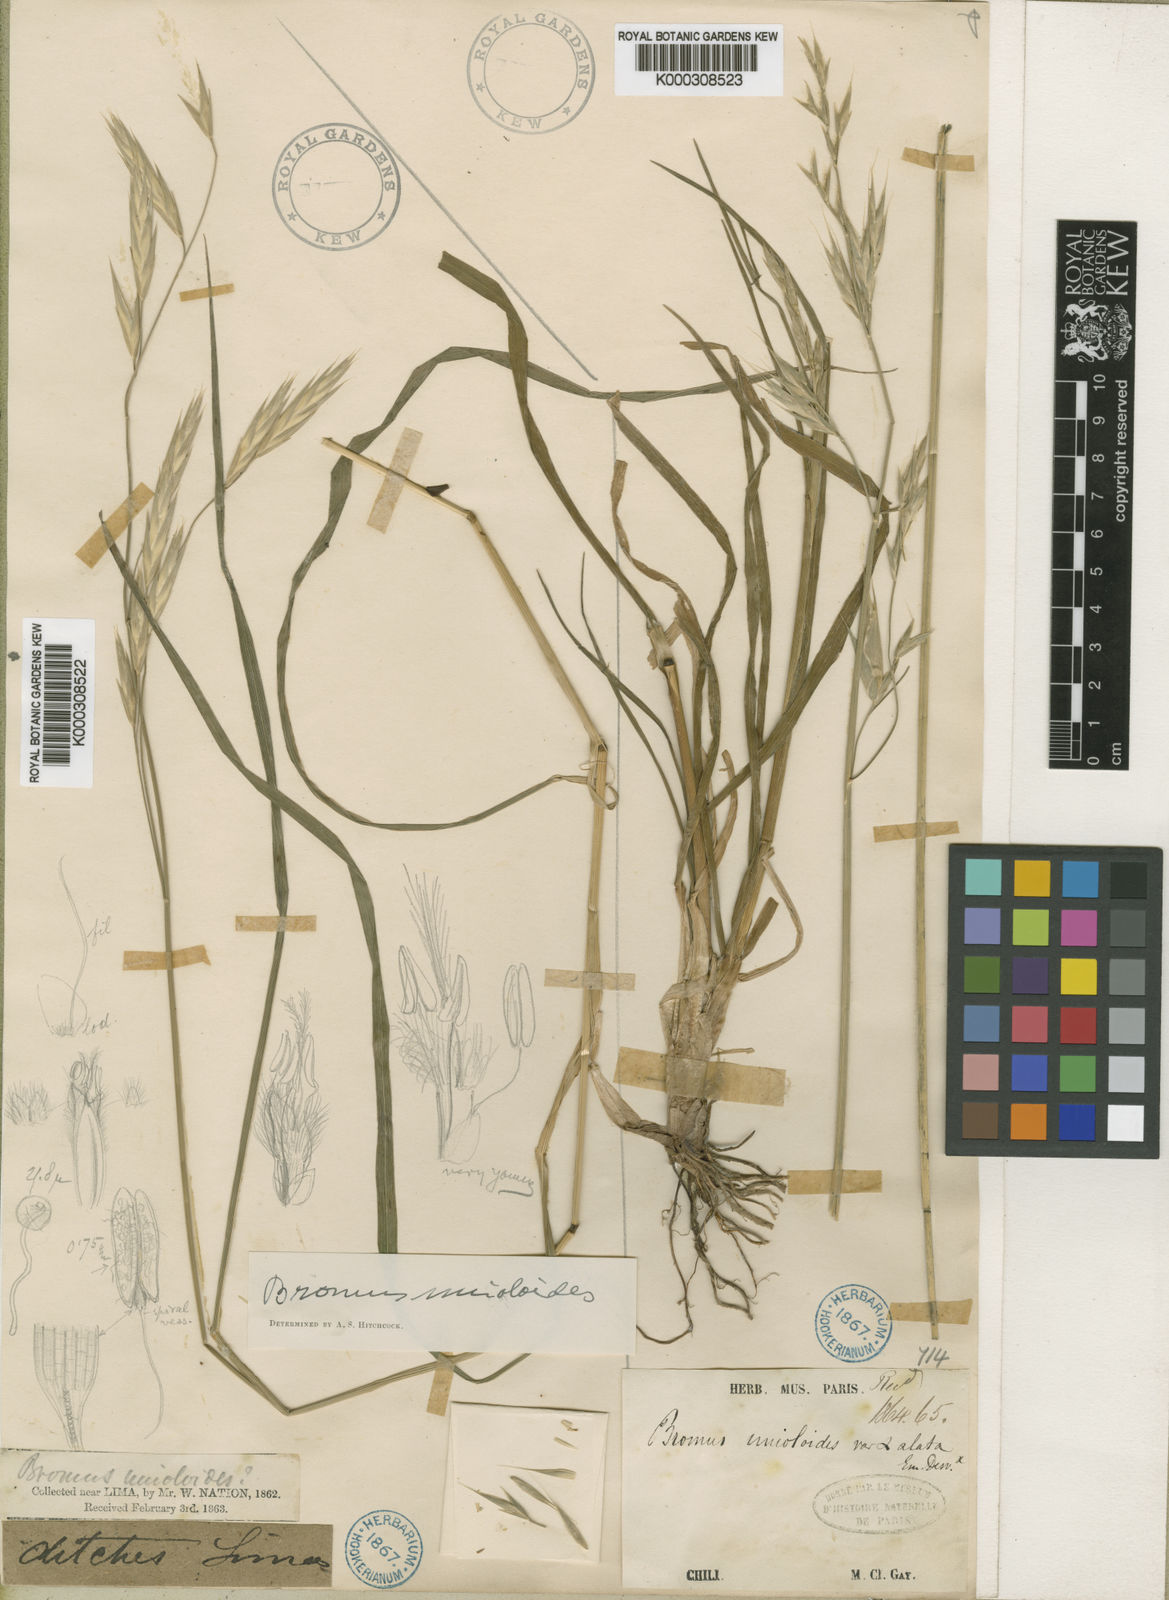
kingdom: Plantae
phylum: Tracheophyta
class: Liliopsida
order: Poales
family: Poaceae
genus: Bromus
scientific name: Bromus cebadilla
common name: Southern brome
